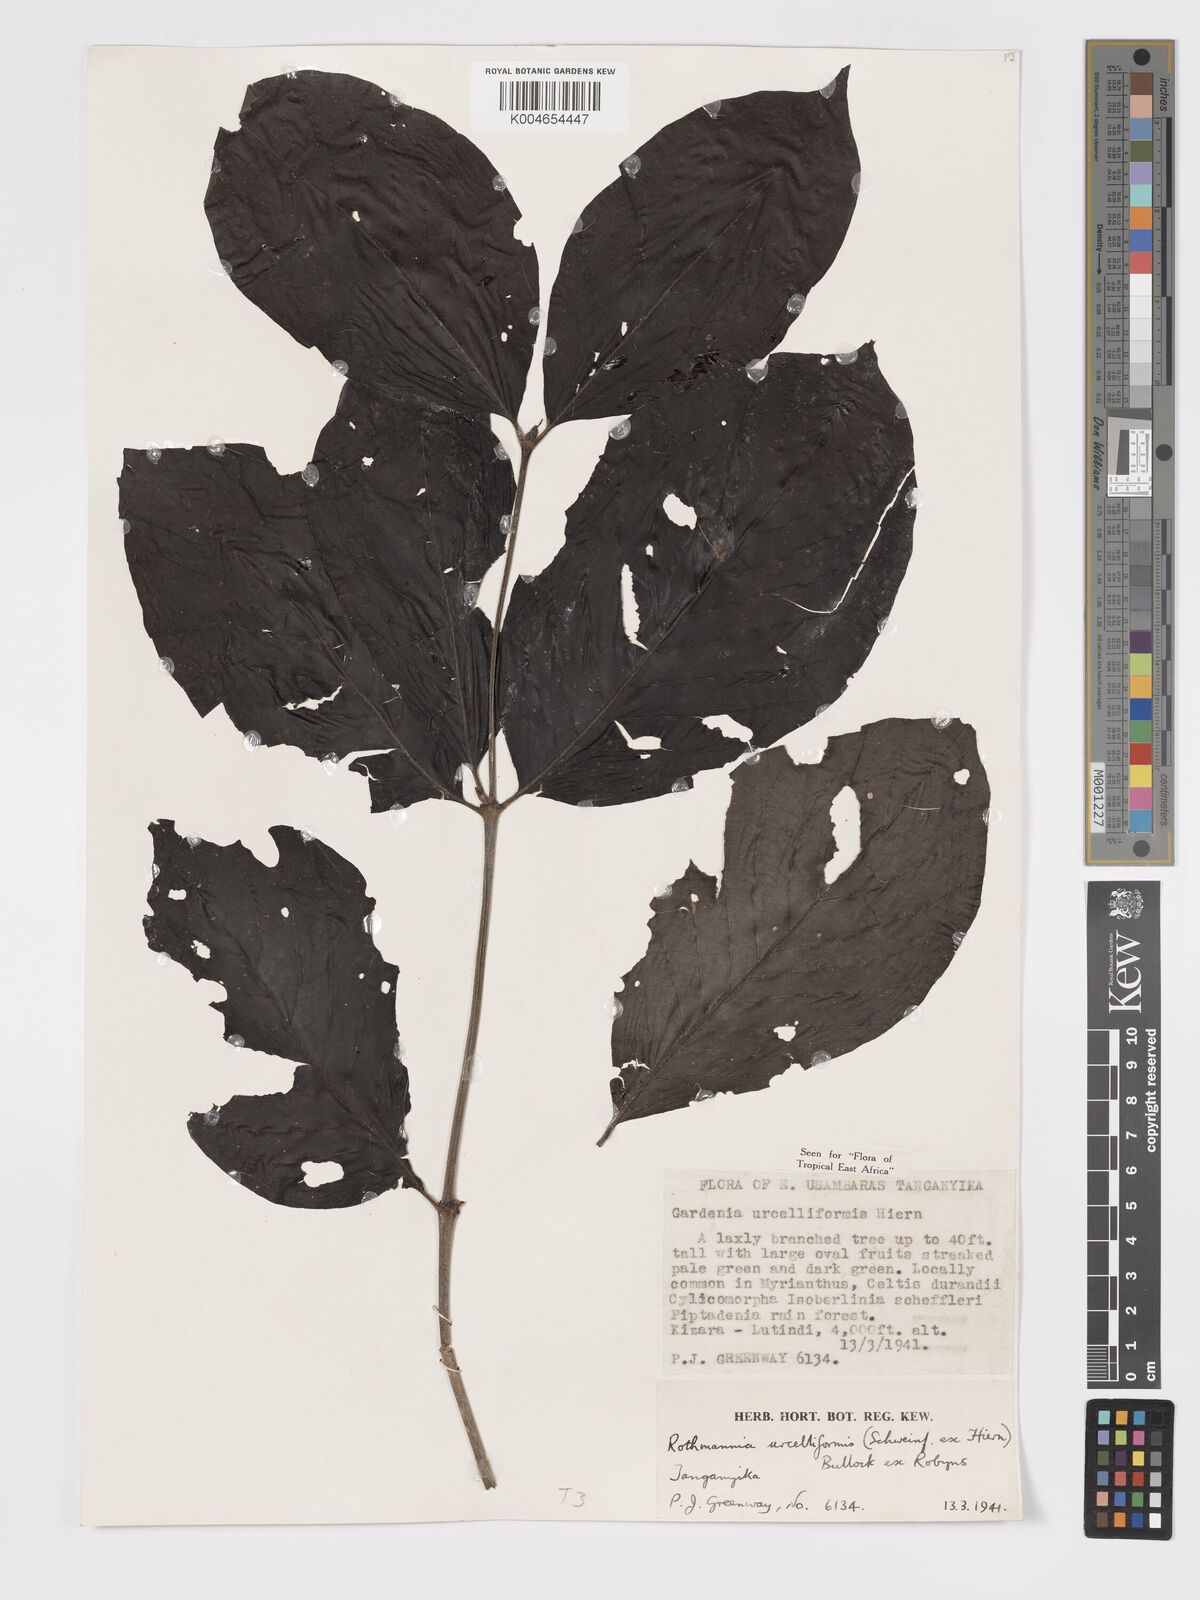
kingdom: Plantae
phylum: Tracheophyta
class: Magnoliopsida
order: Gentianales
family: Rubiaceae
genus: Rothmannia
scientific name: Rothmannia urcelliformis
